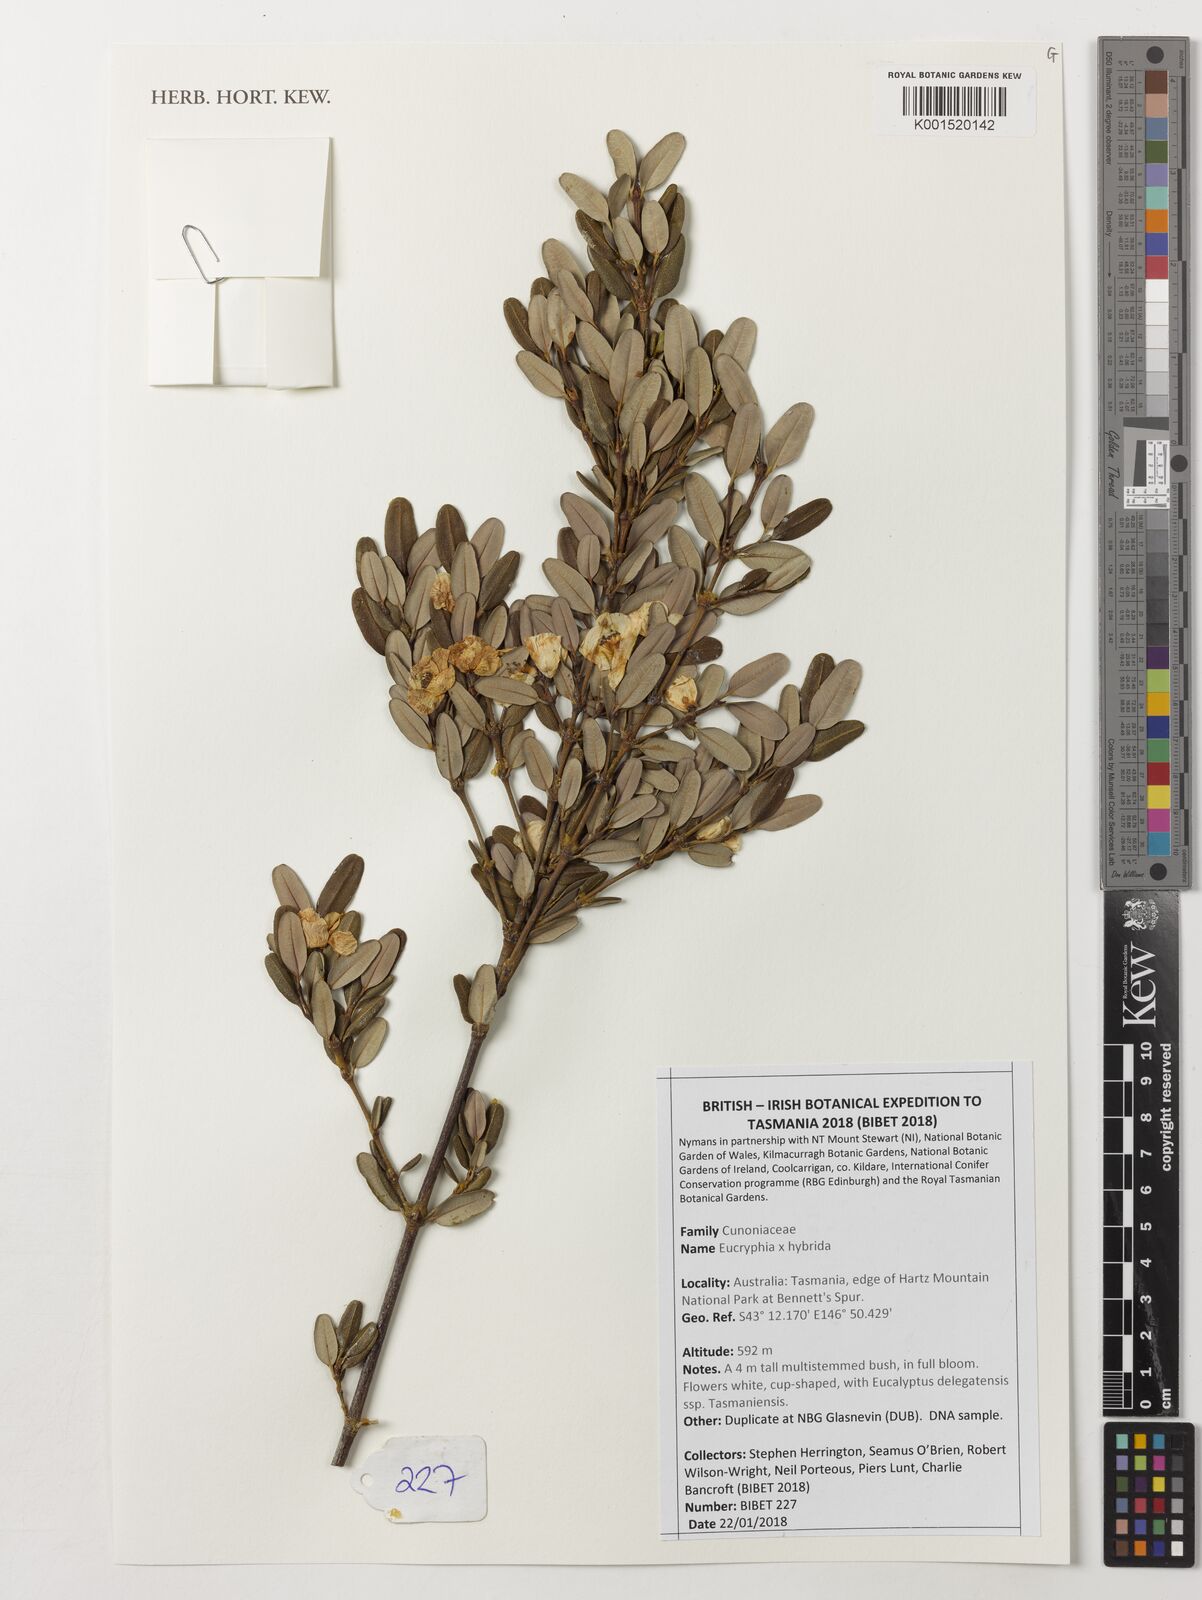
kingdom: Plantae
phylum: Tracheophyta
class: Magnoliopsida
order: Oxalidales
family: Cunoniaceae
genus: Eucryphia
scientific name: Eucryphia
